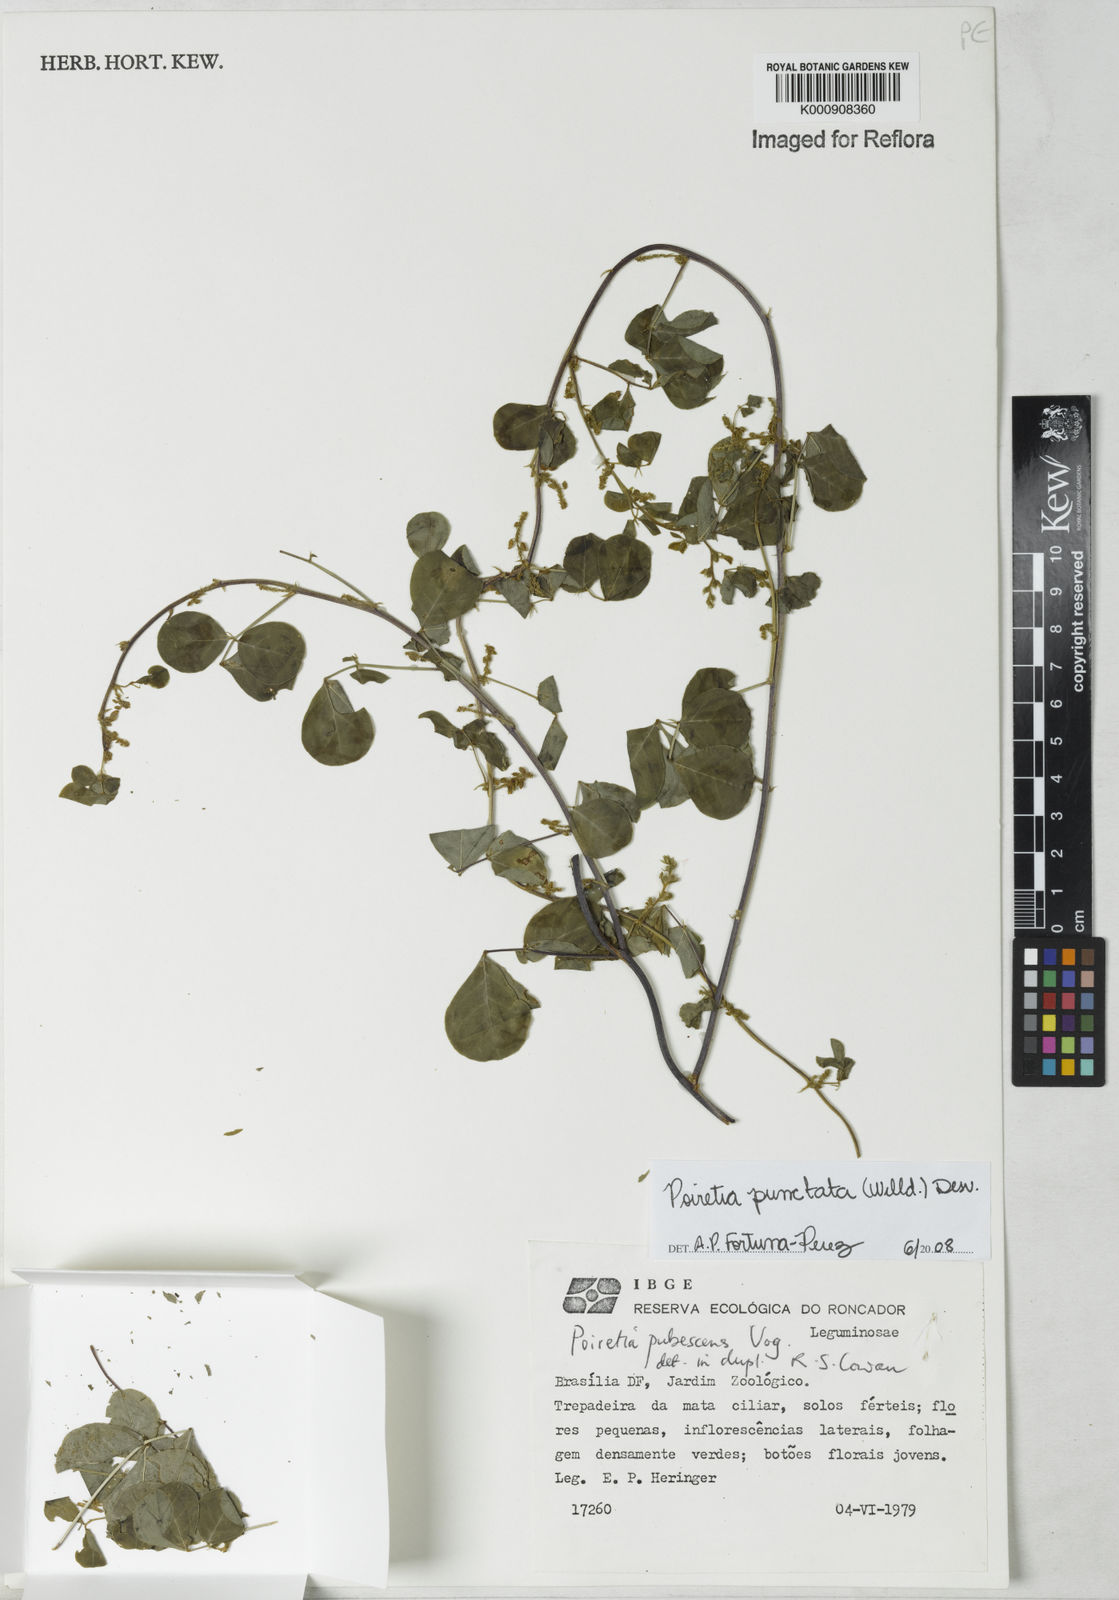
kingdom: Plantae
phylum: Tracheophyta
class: Magnoliopsida
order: Fabales
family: Fabaceae
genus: Poiretia
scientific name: Poiretia punctata
